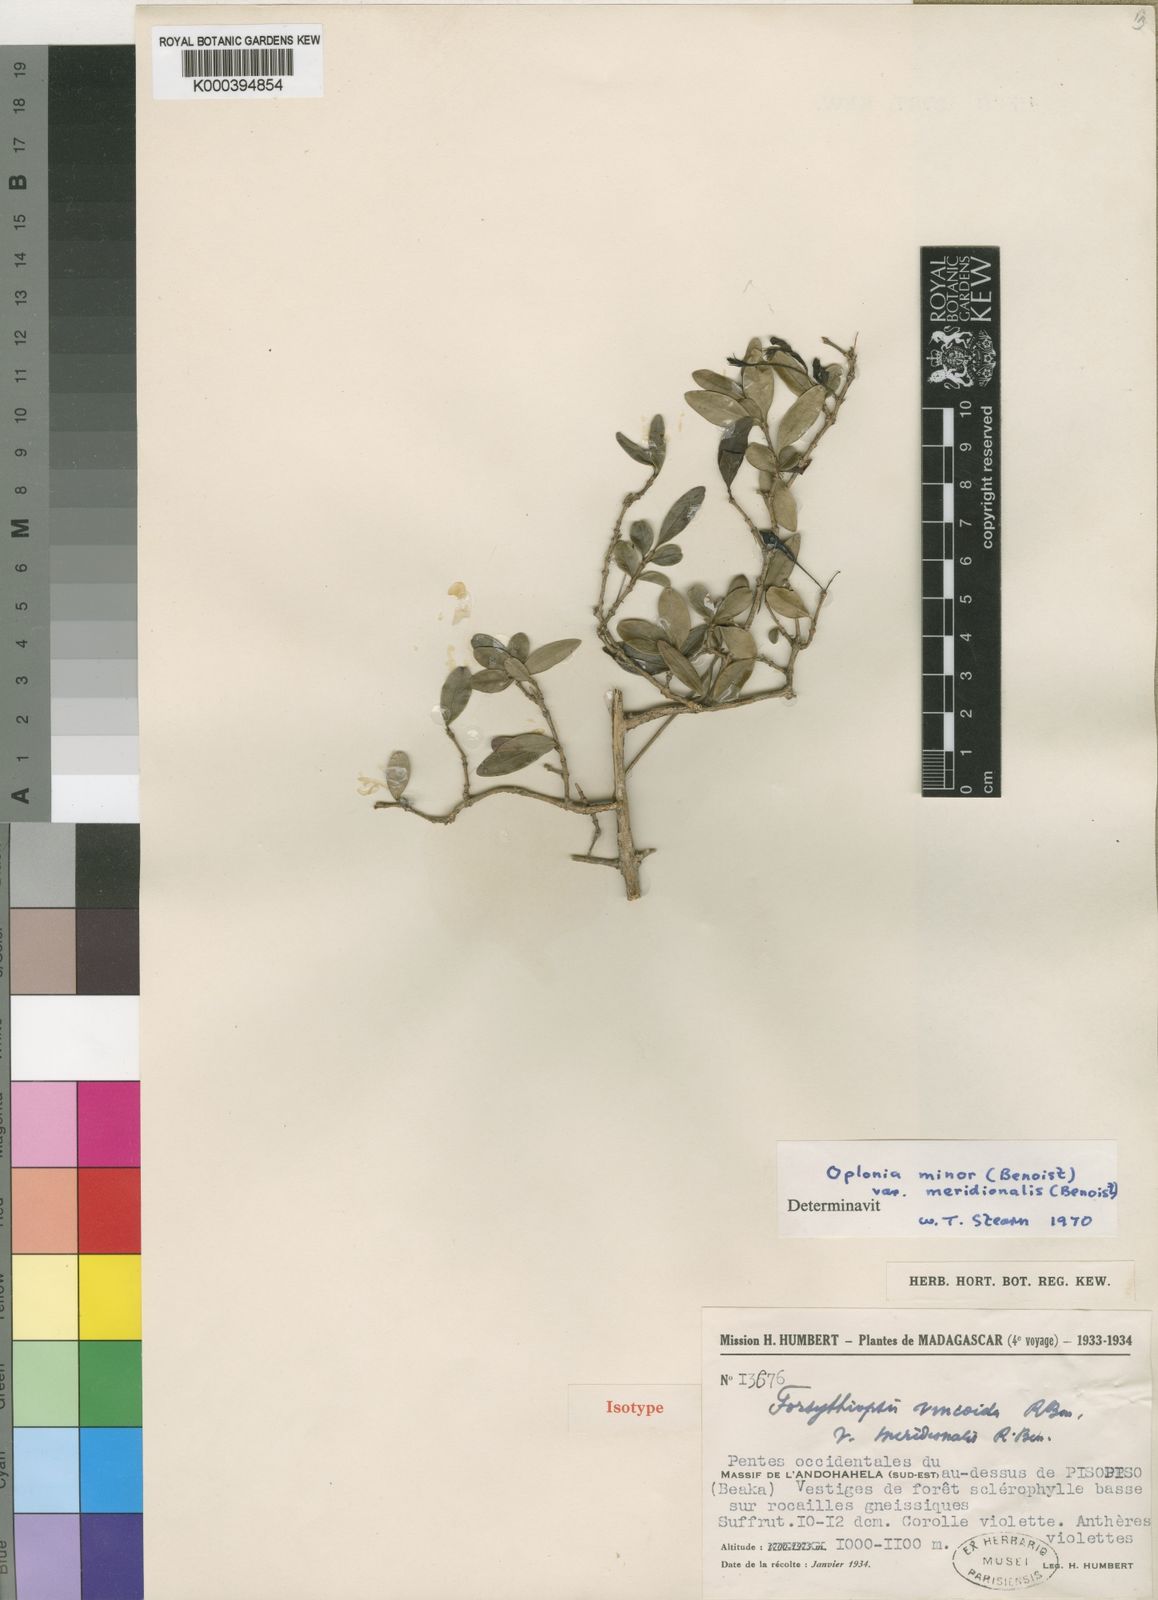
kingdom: Plantae
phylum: Tracheophyta
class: Magnoliopsida
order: Lamiales
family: Acanthaceae
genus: Oplonia
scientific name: Oplonia minor
